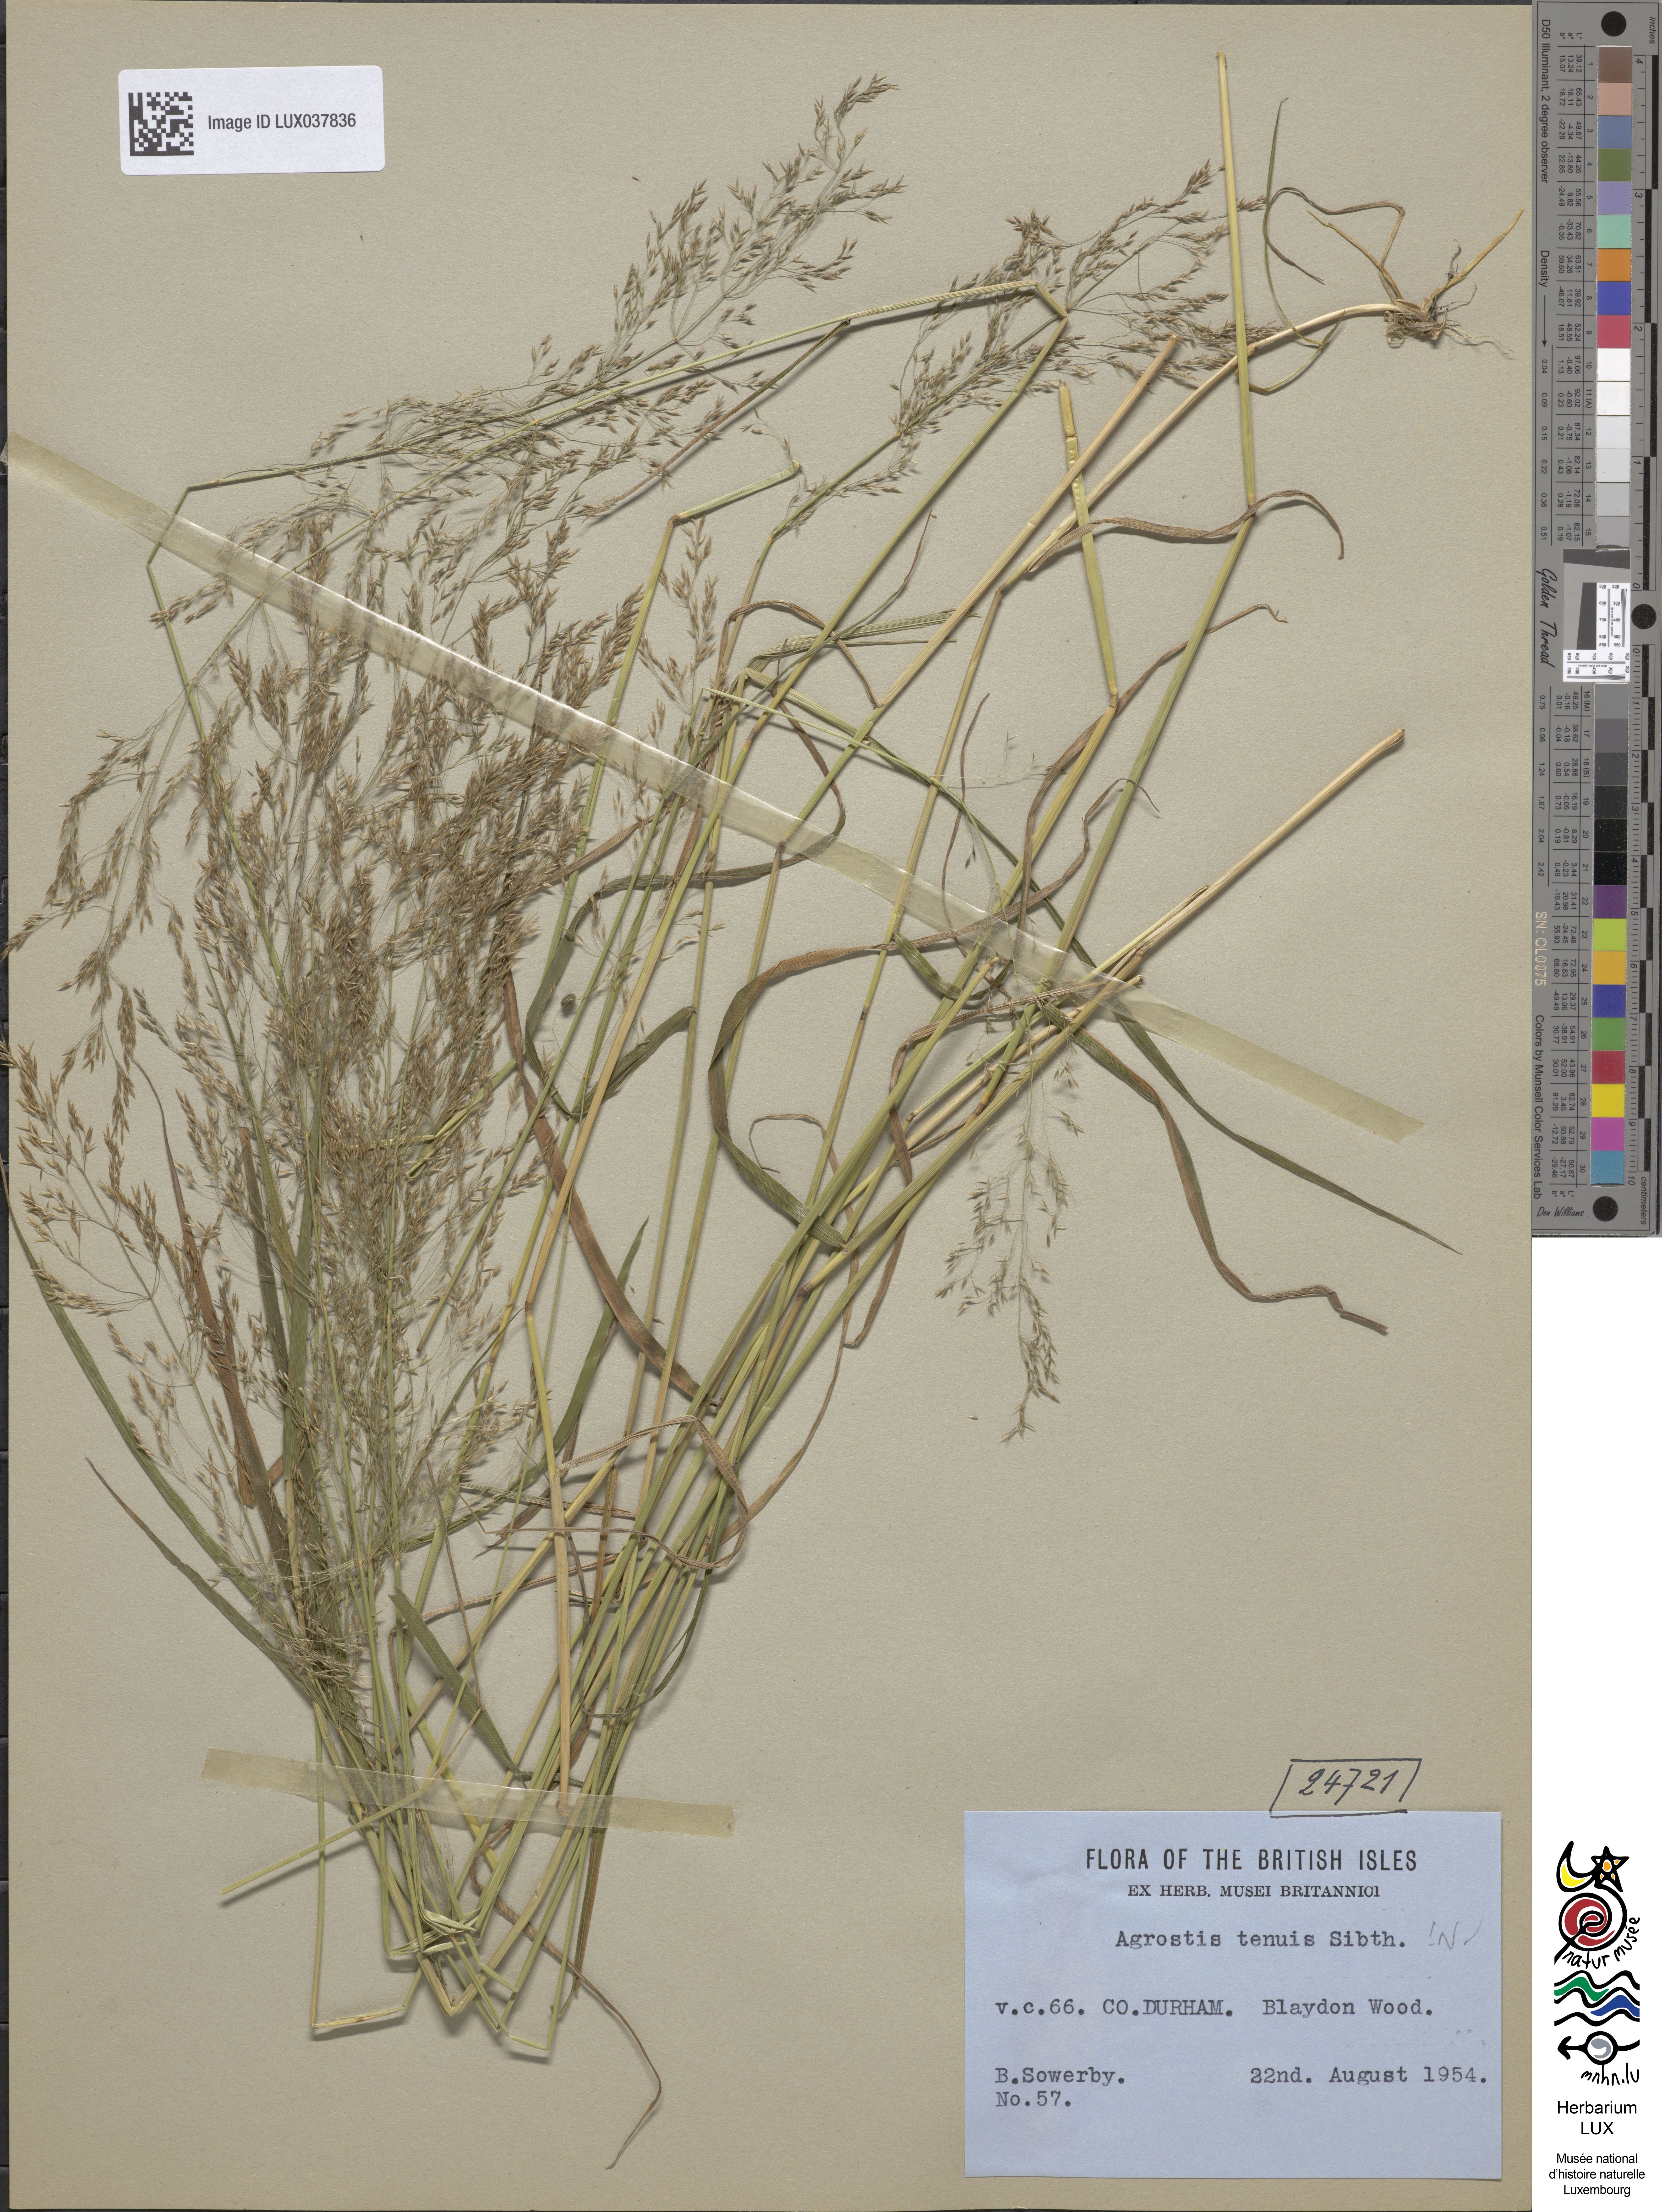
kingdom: Plantae
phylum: Tracheophyta
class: Liliopsida
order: Poales
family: Poaceae
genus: Agrostis
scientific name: Agrostis capillaris
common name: Colonial bentgrass
